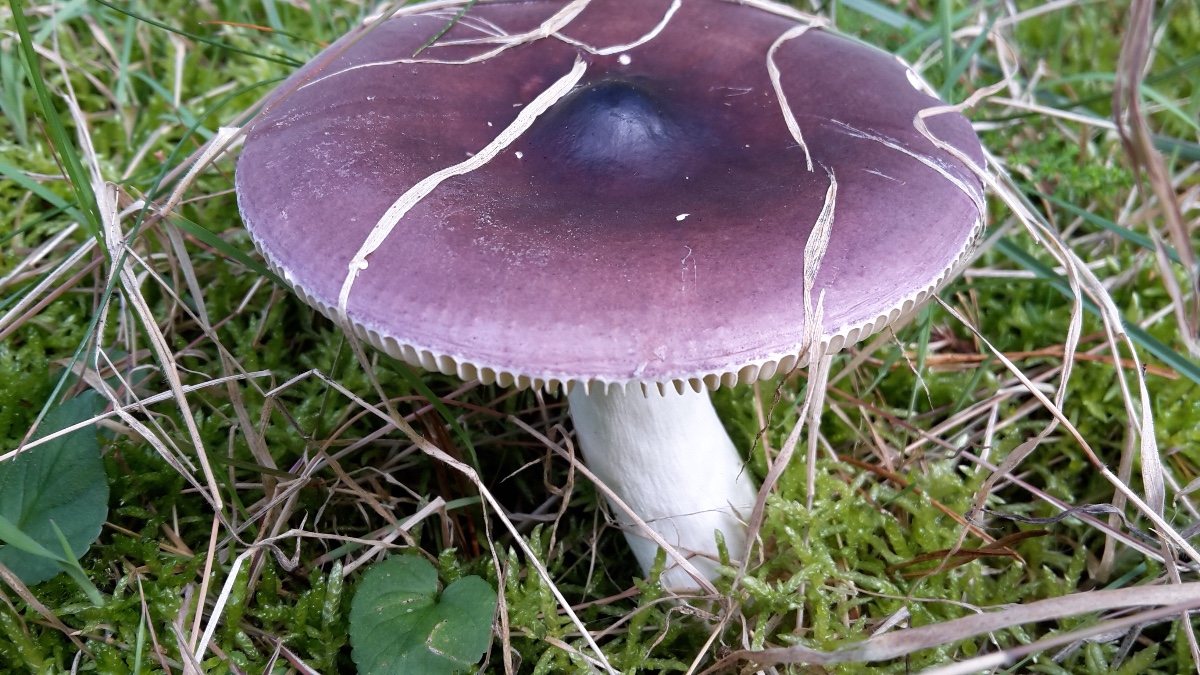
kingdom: Fungi
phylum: Basidiomycota
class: Agaricomycetes
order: Russulales
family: Russulaceae
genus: Russula
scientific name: Russula caerulea
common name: puklet skørhat
